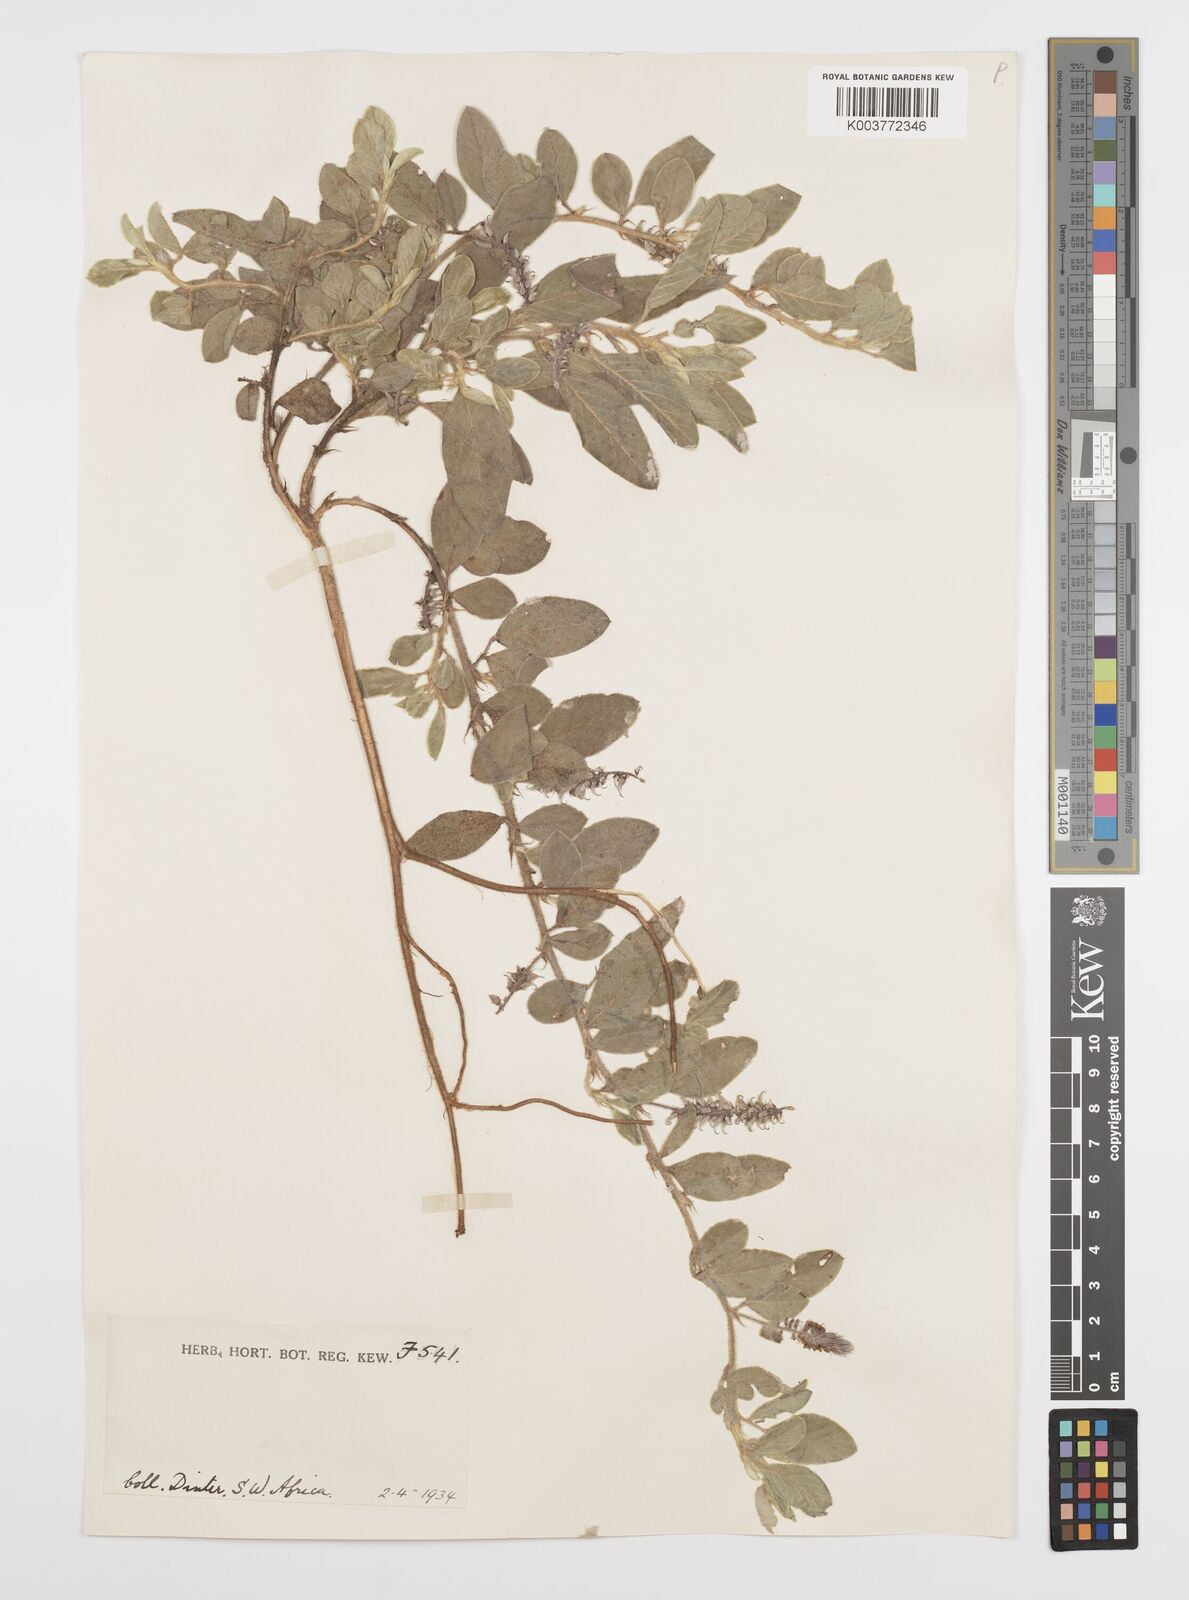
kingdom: Plantae
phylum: Tracheophyta
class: Magnoliopsida
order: Fabales
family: Fabaceae
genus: Indigofera
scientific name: Indigofera flavicans
